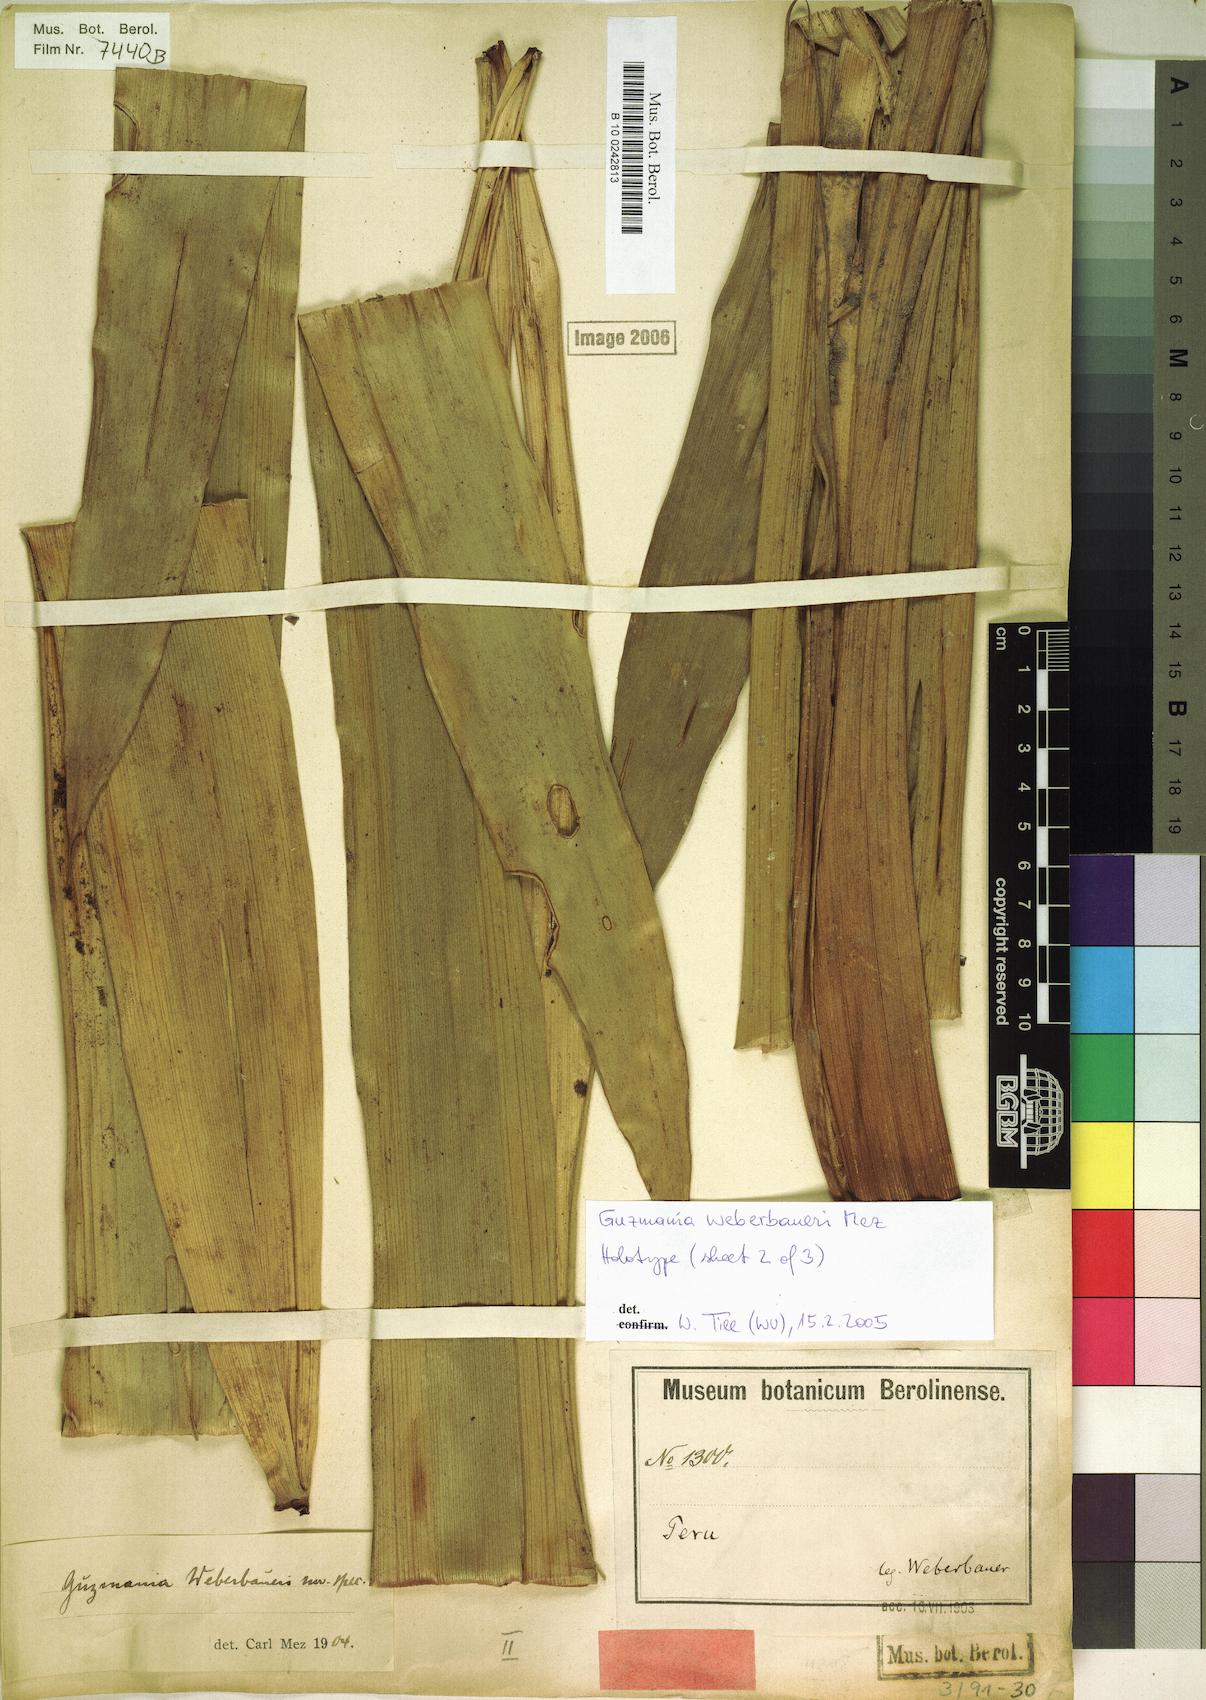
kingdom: Plantae
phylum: Tracheophyta
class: Liliopsida
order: Poales
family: Bromeliaceae
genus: Guzmania
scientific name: Guzmania weberbaueri
